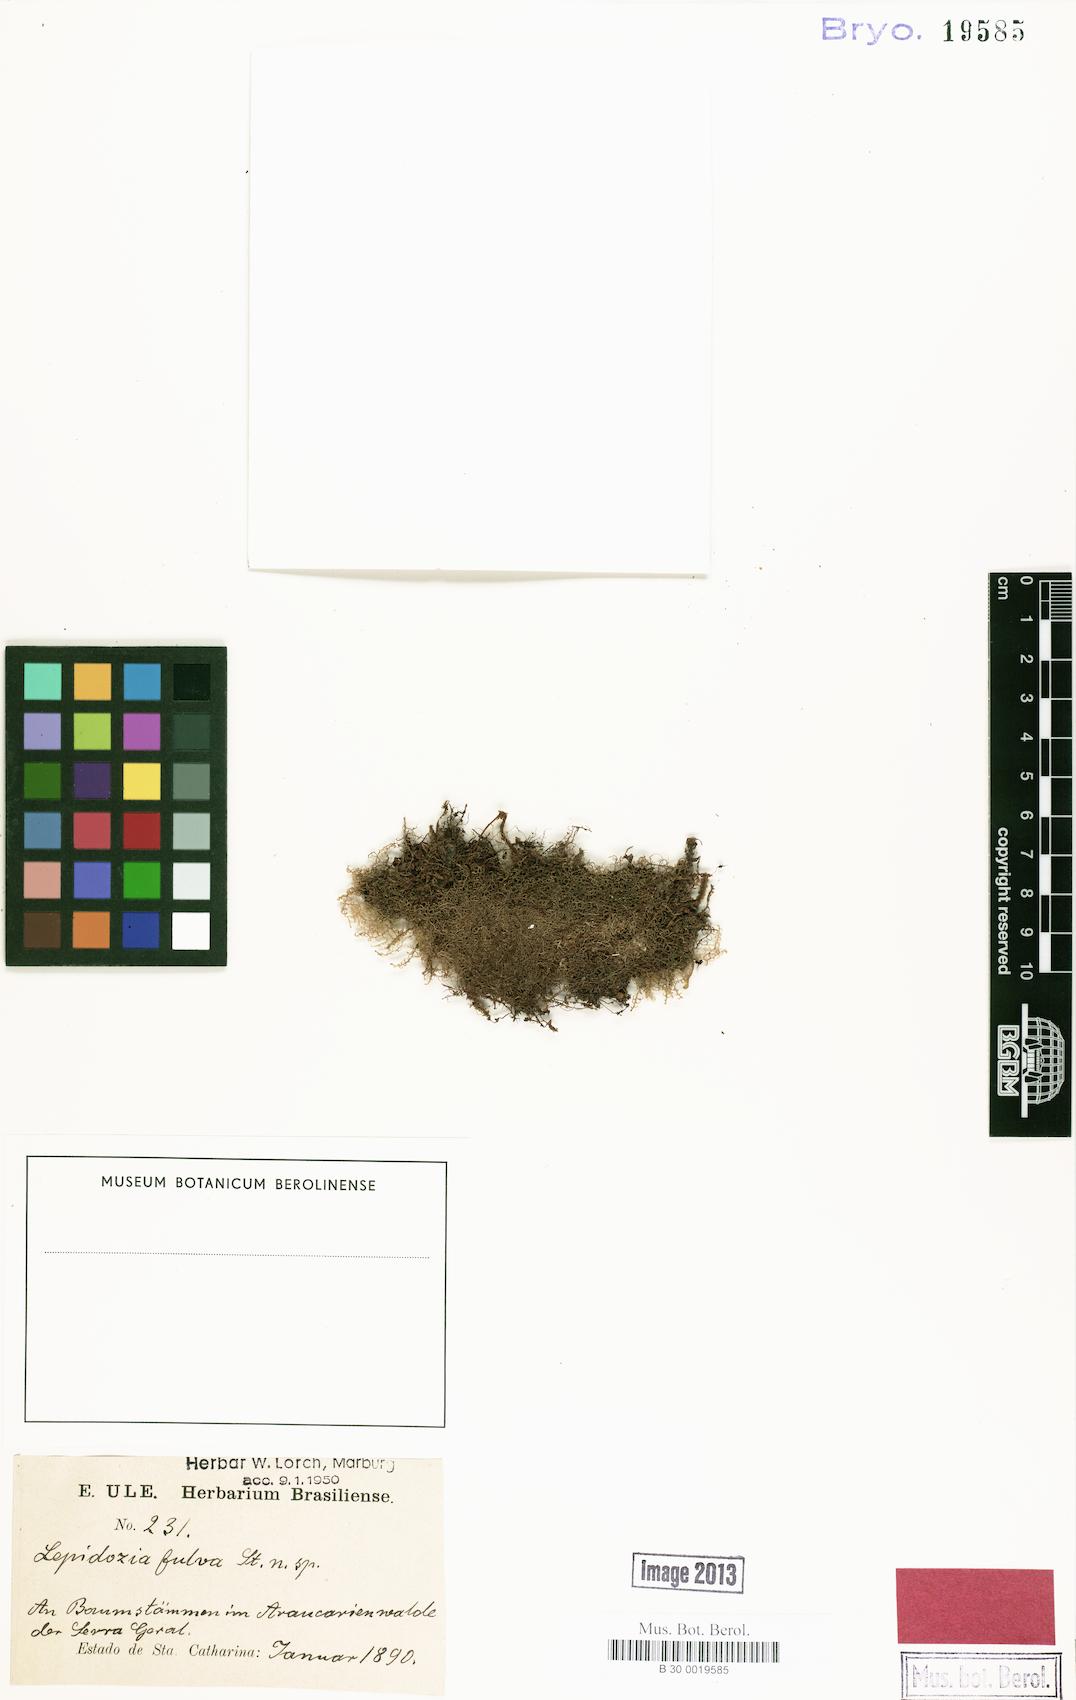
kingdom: Plantae
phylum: Marchantiophyta
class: Jungermanniopsida
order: Jungermanniales
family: Lepidoziaceae
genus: Lepidozia
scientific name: Lepidozia cupressina
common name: Rock fingerwort
